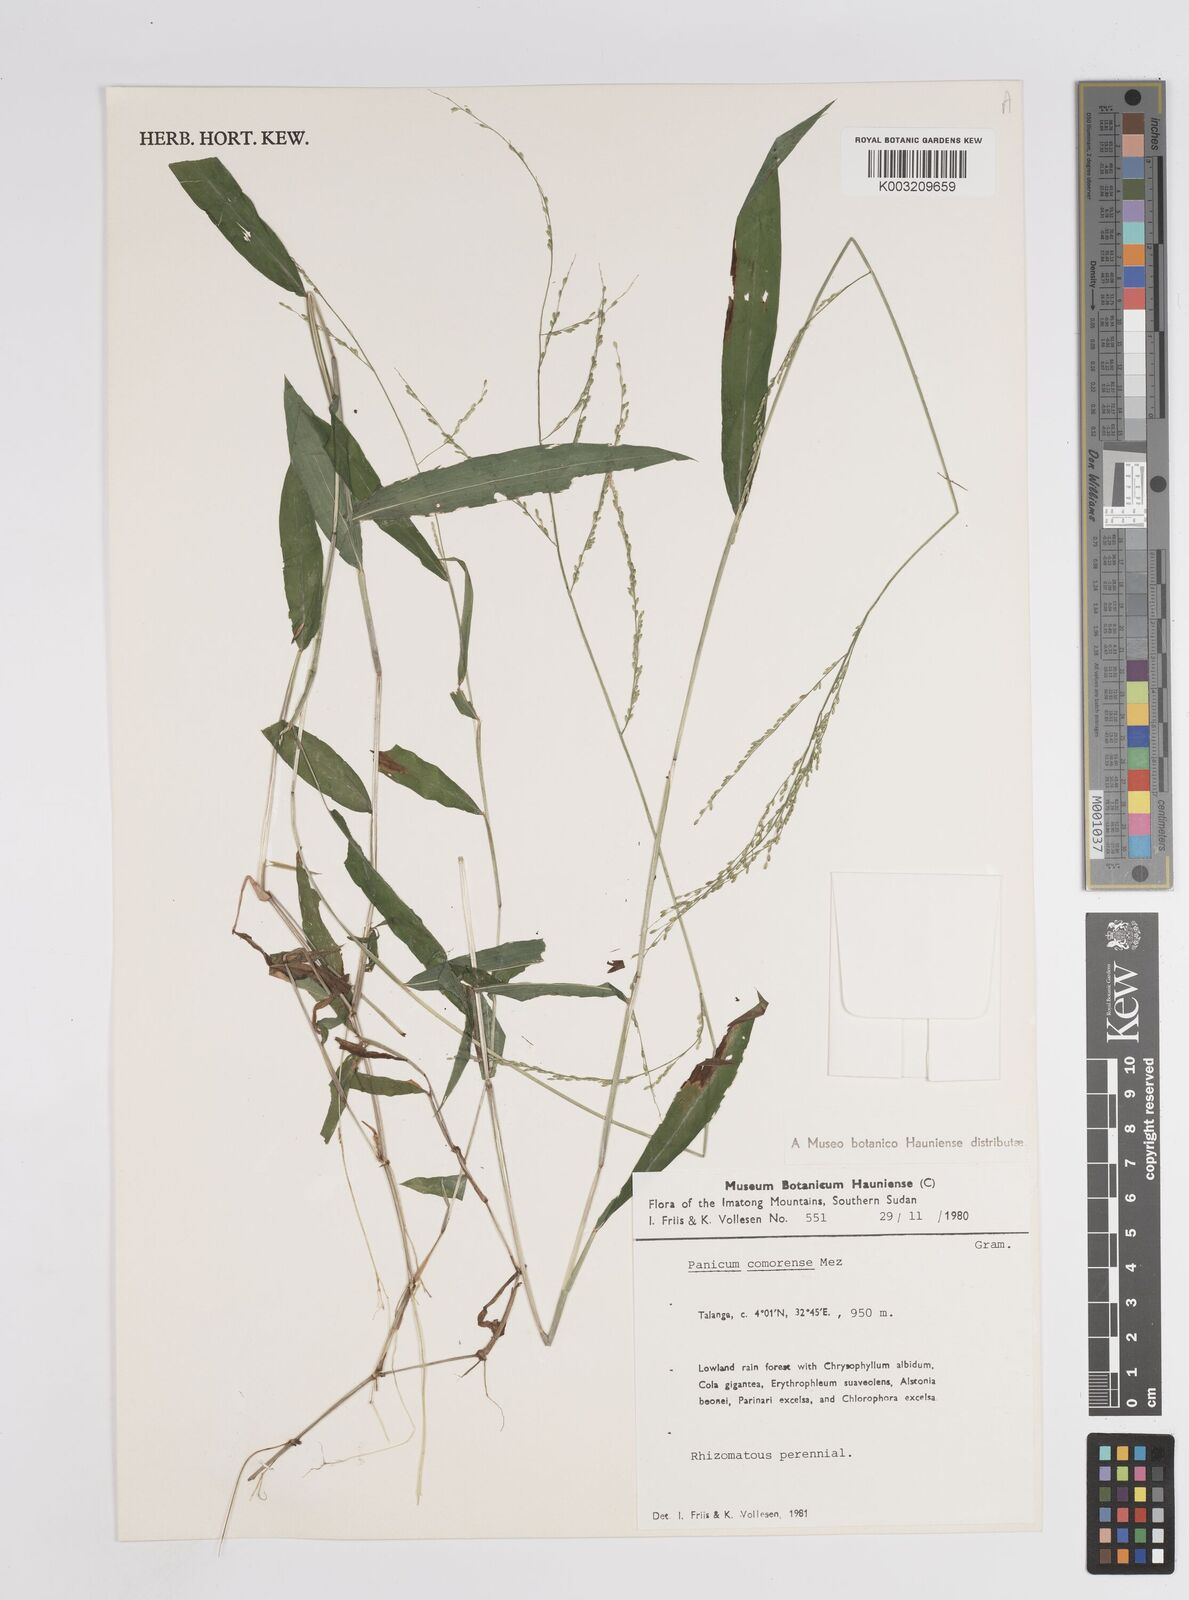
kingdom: Plantae
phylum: Tracheophyta
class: Liliopsida
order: Poales
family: Poaceae
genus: Panicum
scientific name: Panicum comorense
